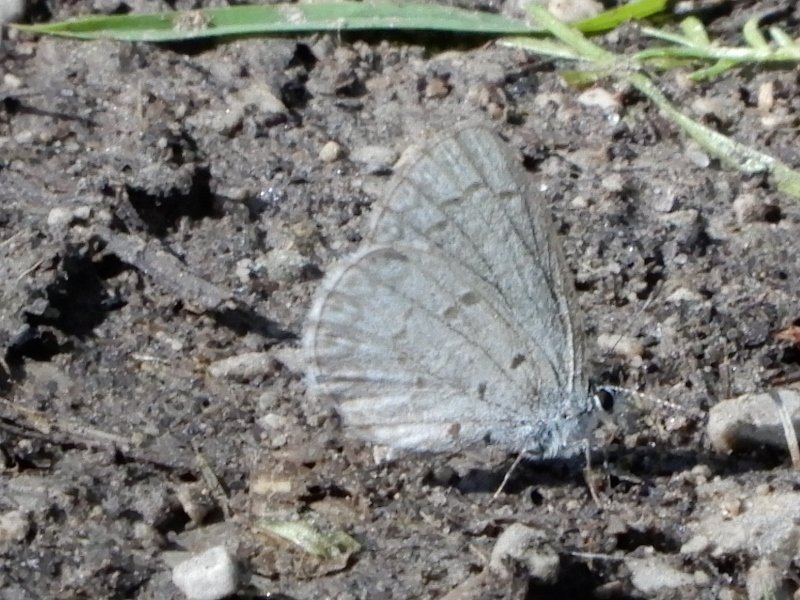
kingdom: Animalia
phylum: Arthropoda
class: Insecta
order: Lepidoptera
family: Lycaenidae
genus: Celastrina
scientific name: Celastrina
